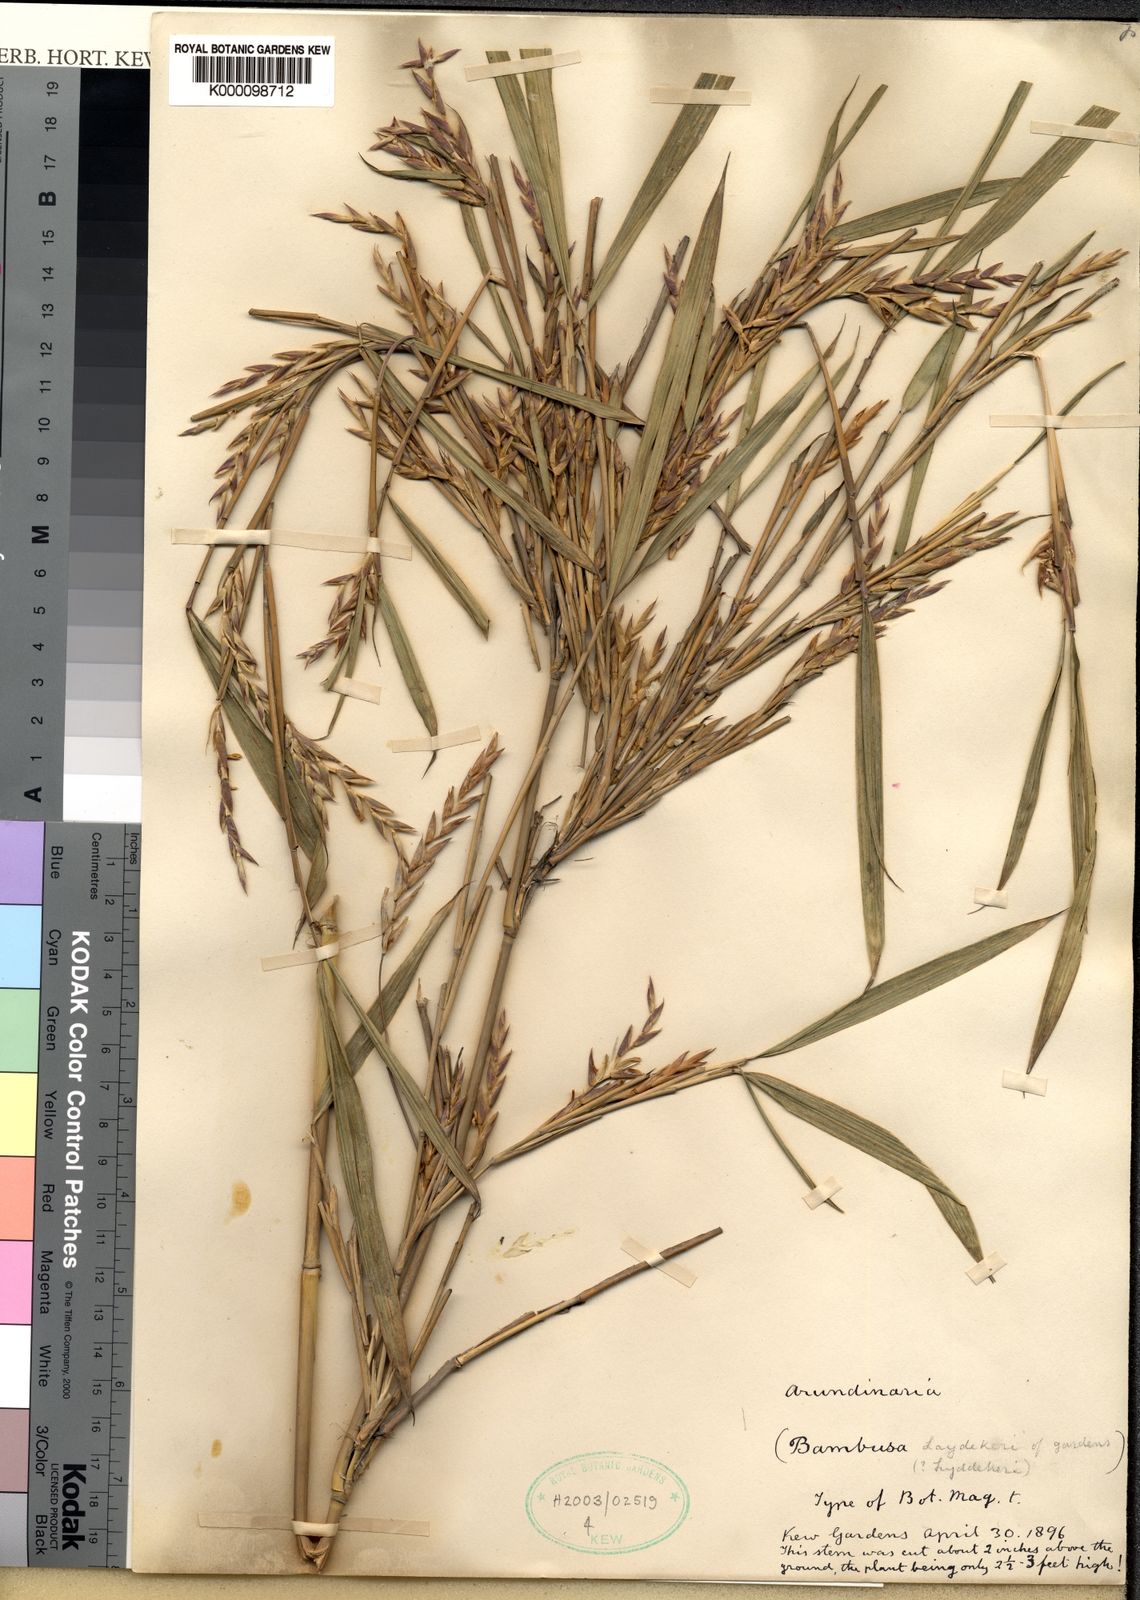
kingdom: Plantae
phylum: Tracheophyta
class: Liliopsida
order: Poales
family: Poaceae
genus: Arundinella
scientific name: Arundinella
